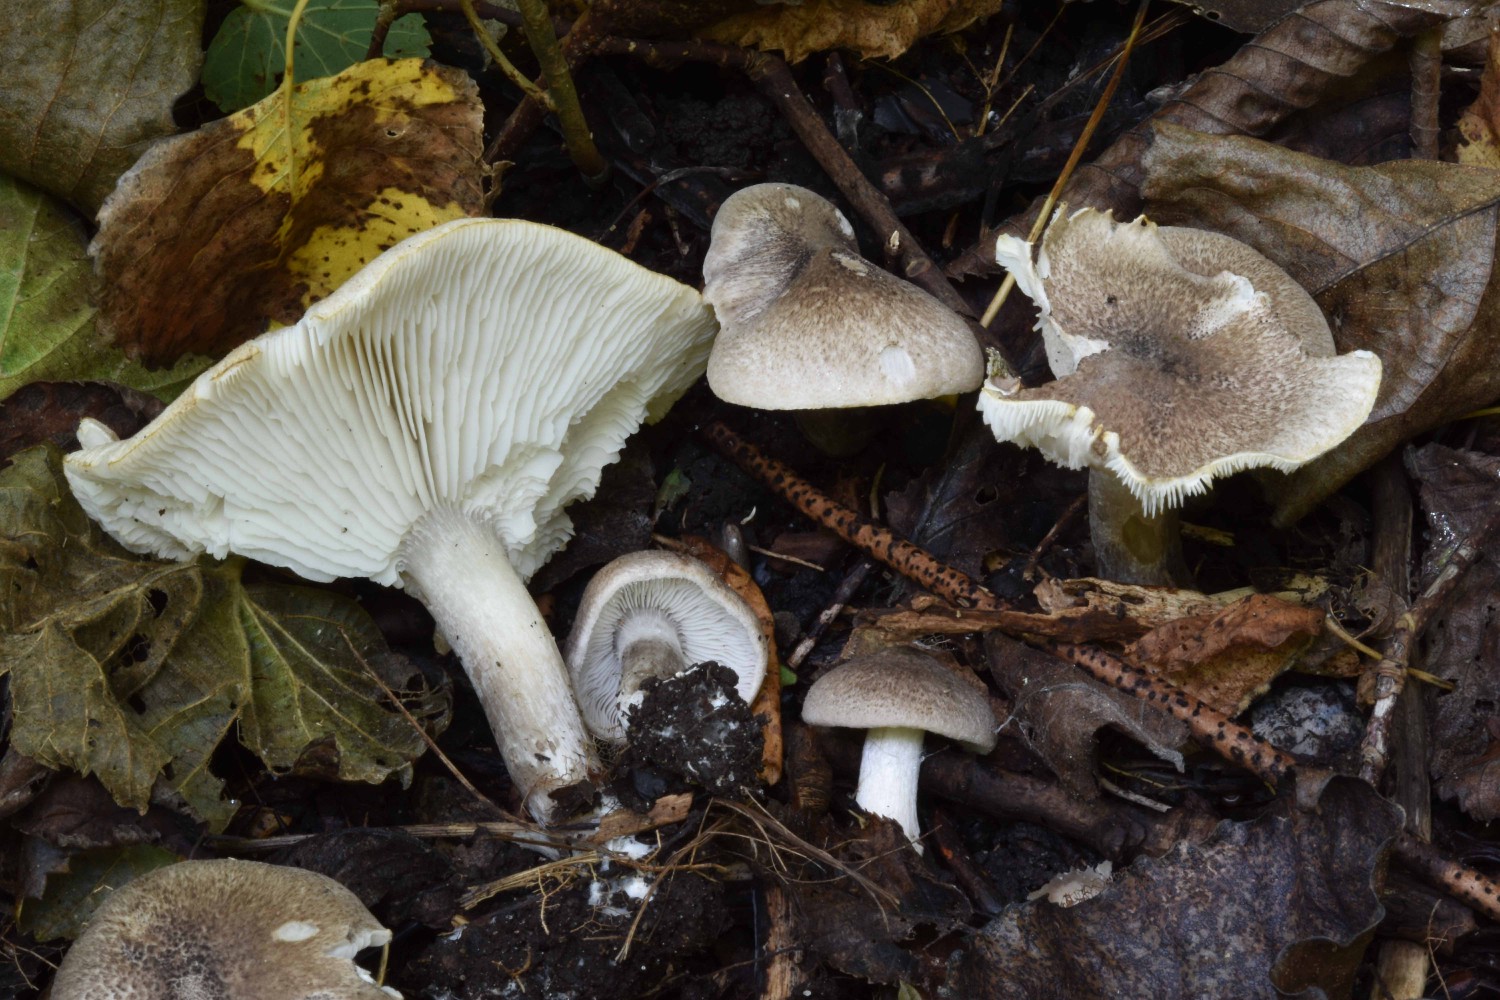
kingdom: Fungi
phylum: Basidiomycota
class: Agaricomycetes
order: Agaricales
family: Tricholomataceae
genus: Tricholoma
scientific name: Tricholoma scalpturatum
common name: gulplettet ridderhat
